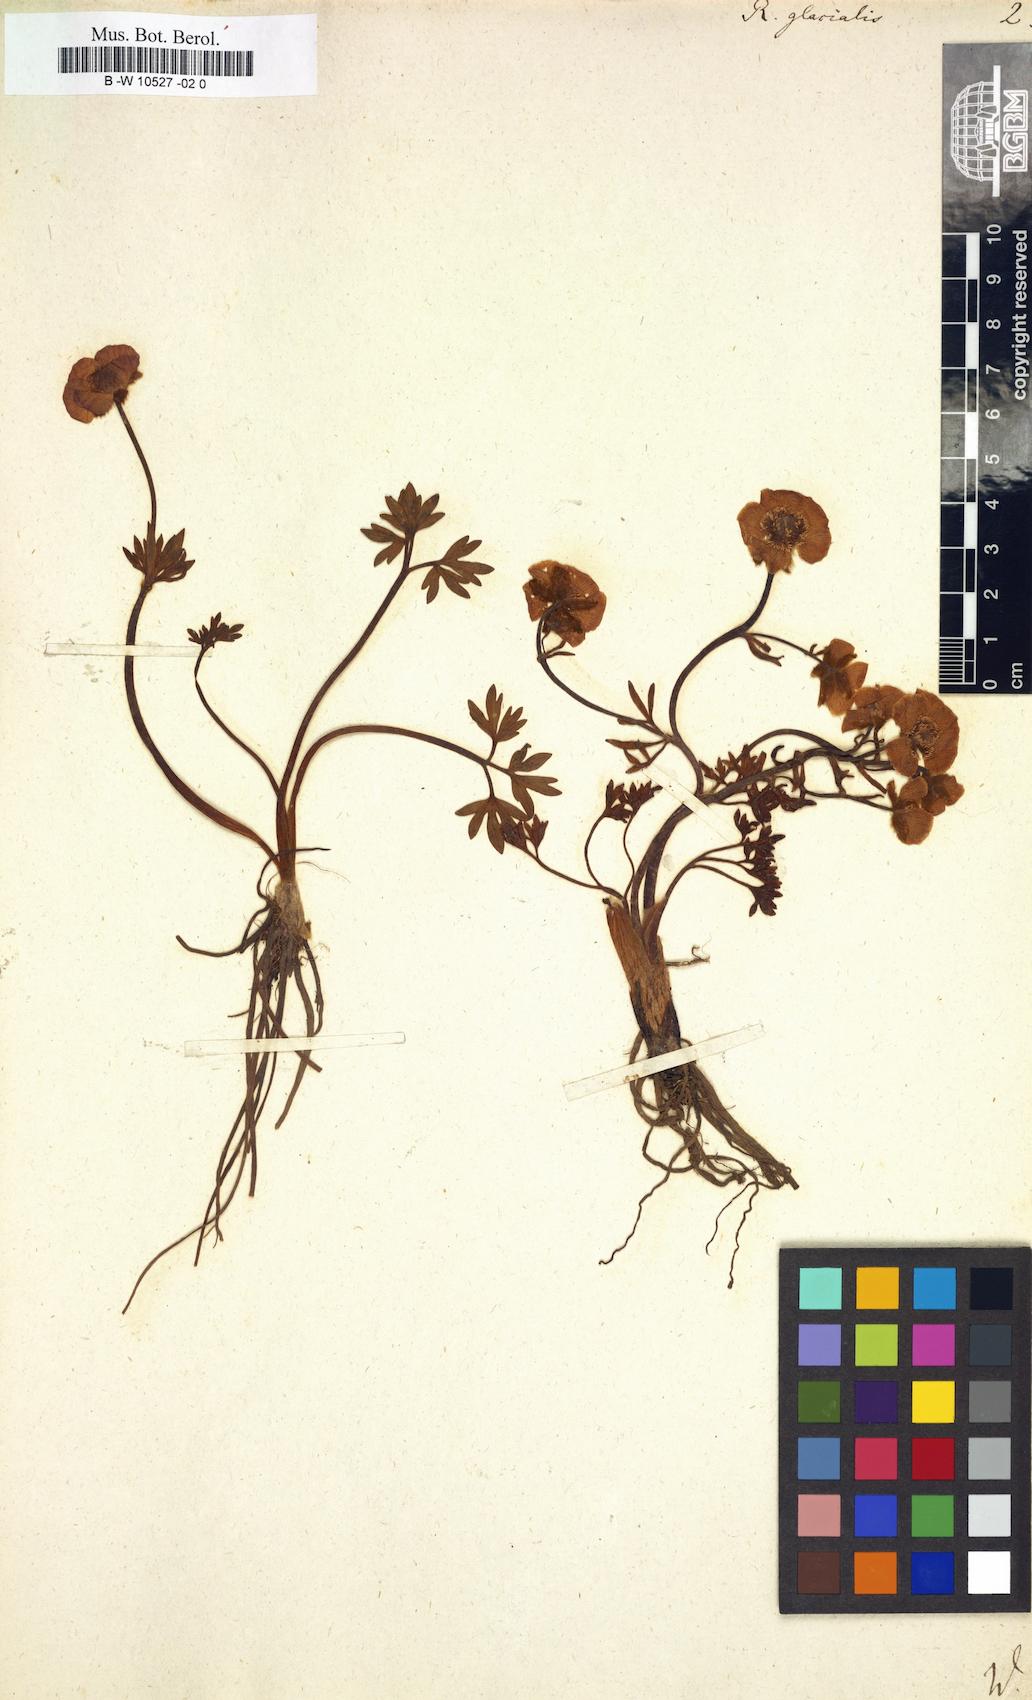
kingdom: Plantae
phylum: Tracheophyta
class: Magnoliopsida
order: Ranunculales
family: Ranunculaceae
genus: Ranunculus
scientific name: Ranunculus glacialis
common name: Glacier buttercup
